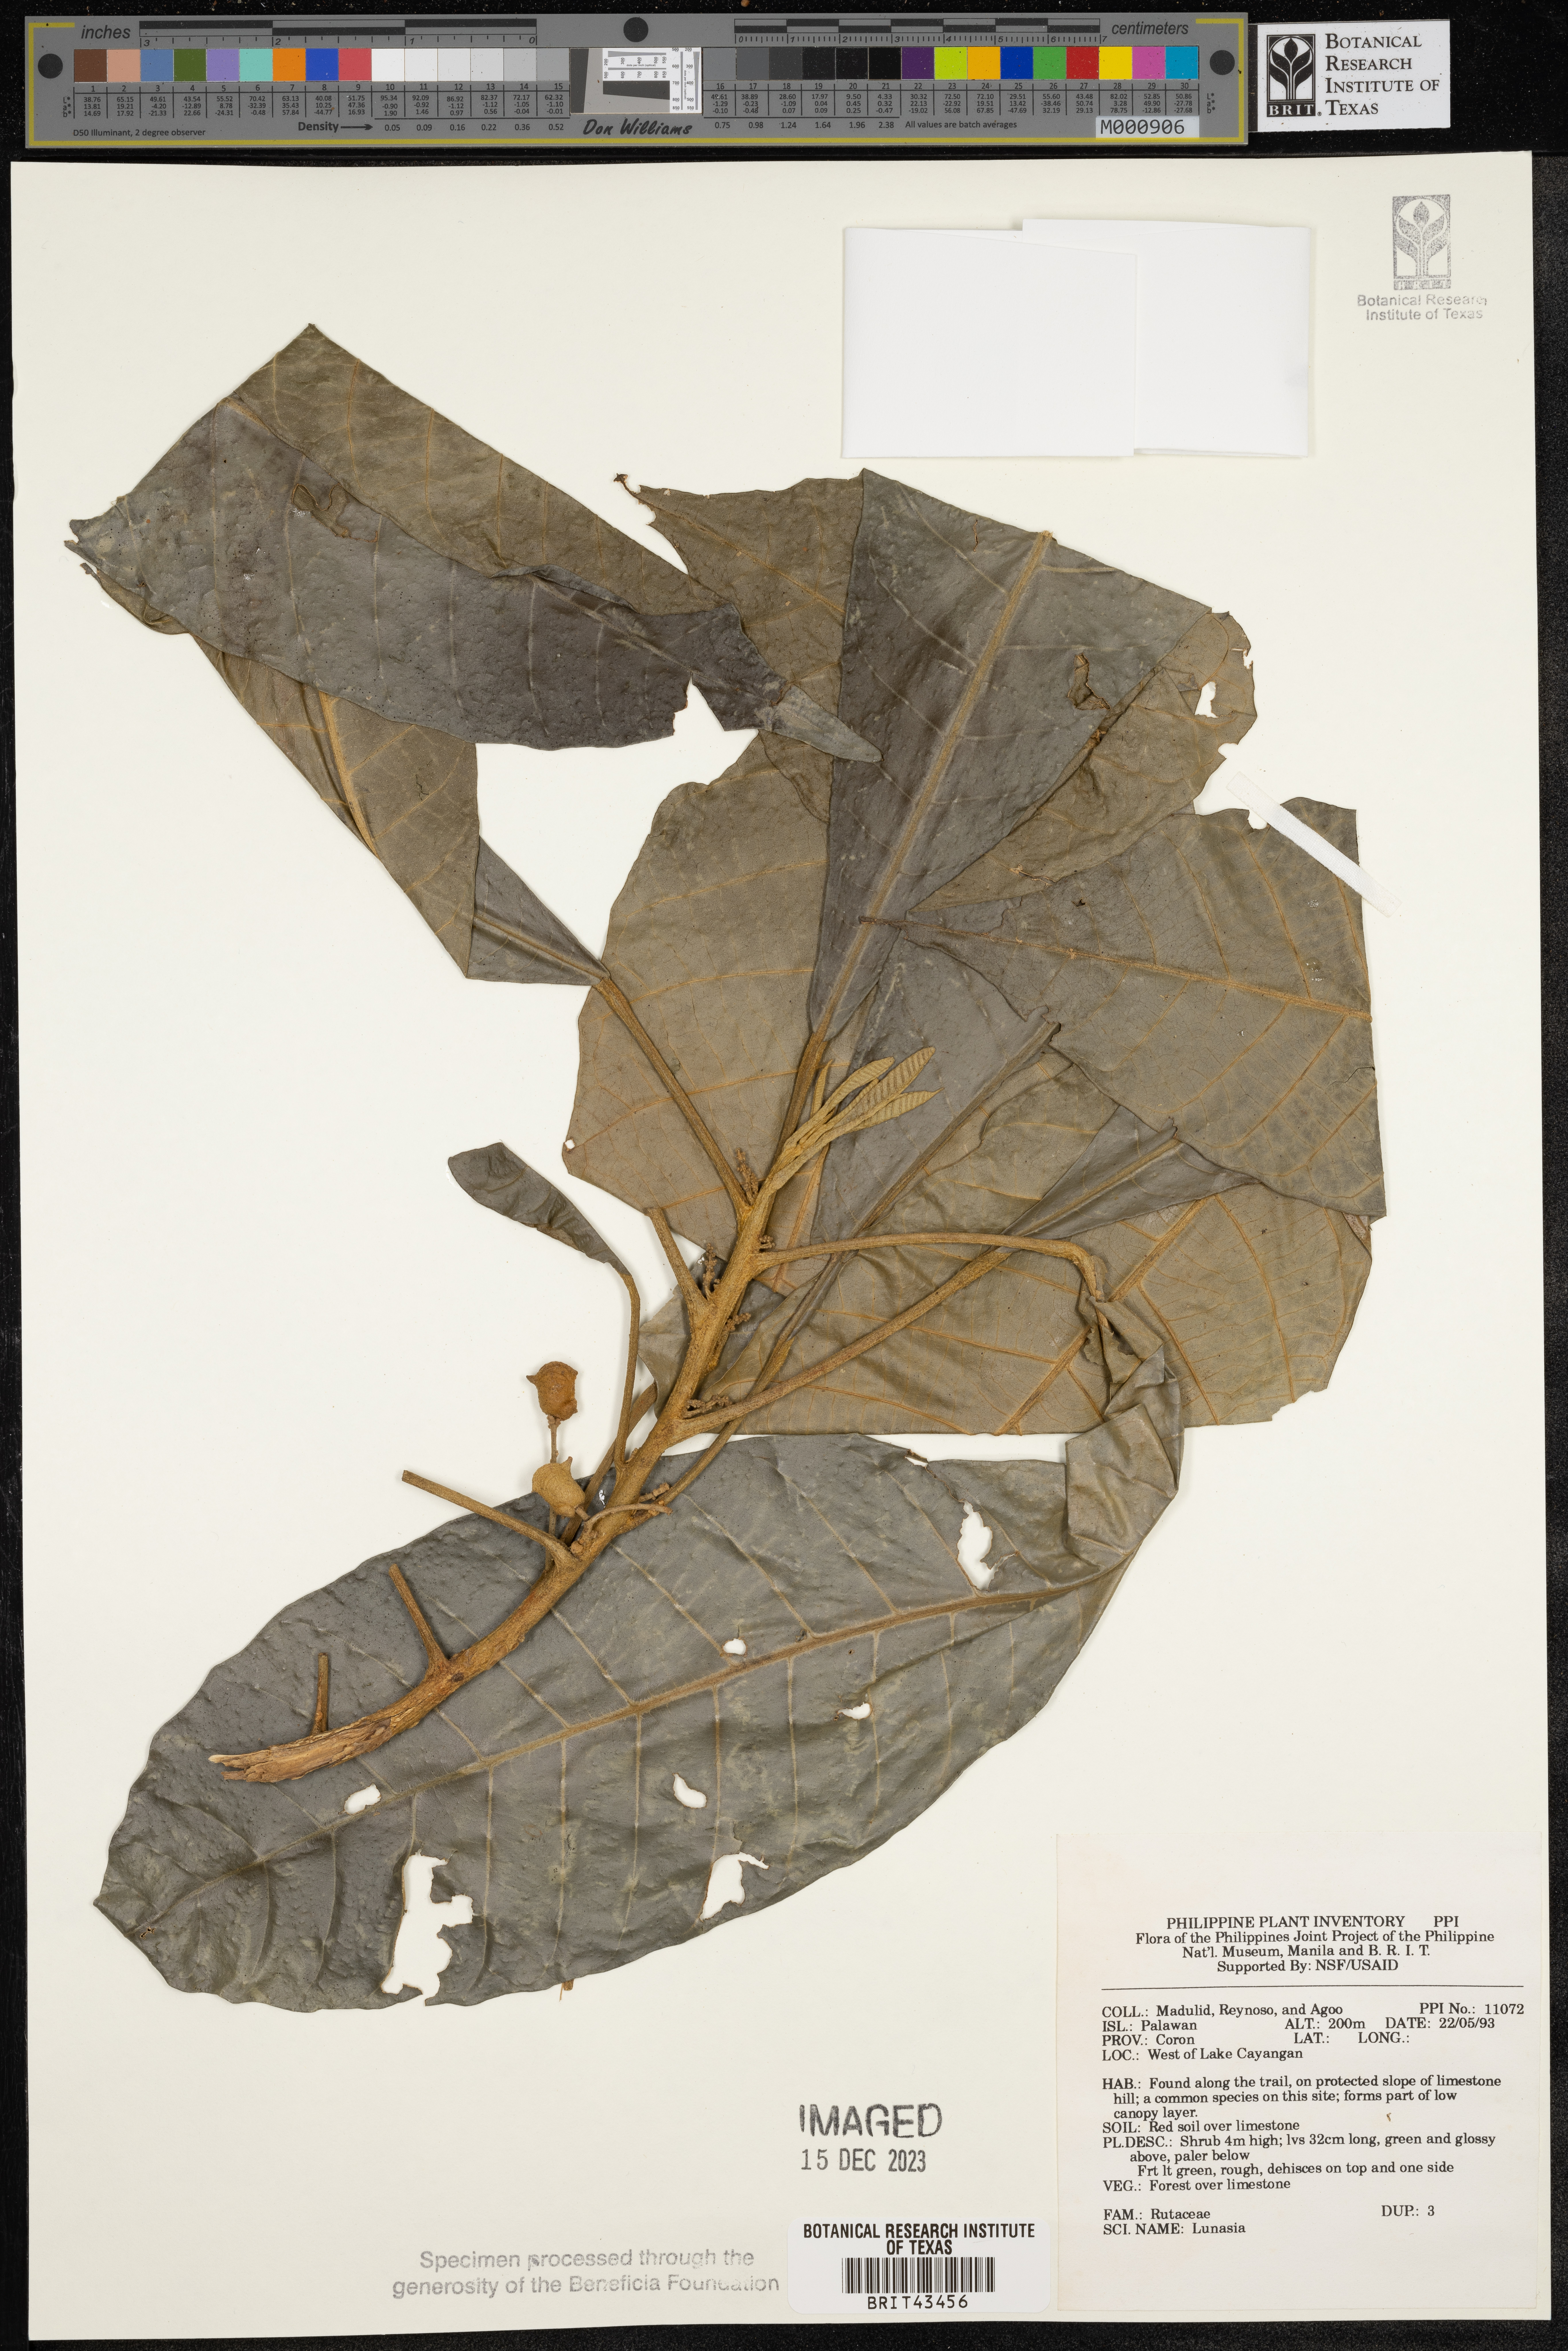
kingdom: Plantae
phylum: Tracheophyta
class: Magnoliopsida
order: Sapindales
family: Rutaceae
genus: Lunasia
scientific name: Lunasia
